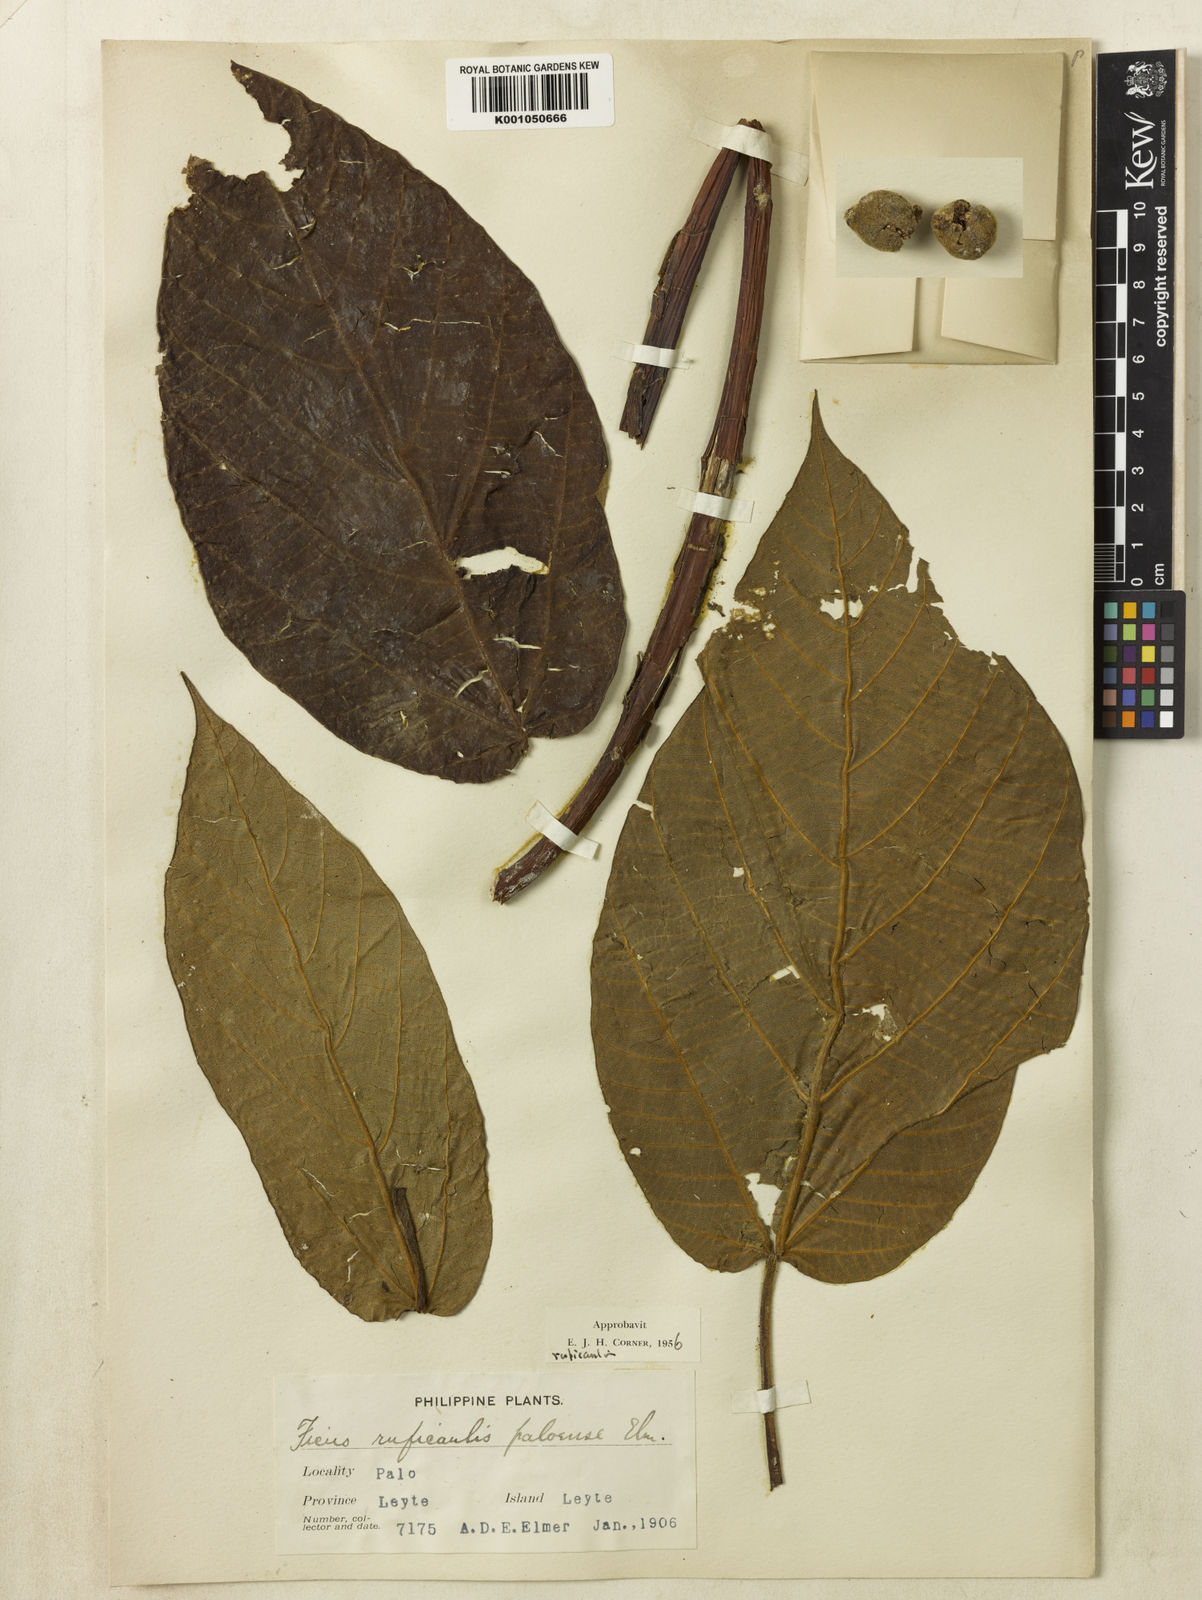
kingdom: Plantae
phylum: Tracheophyta
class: Magnoliopsida
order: Rosales
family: Moraceae
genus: Ficus
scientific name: Ficus ruficaulis
